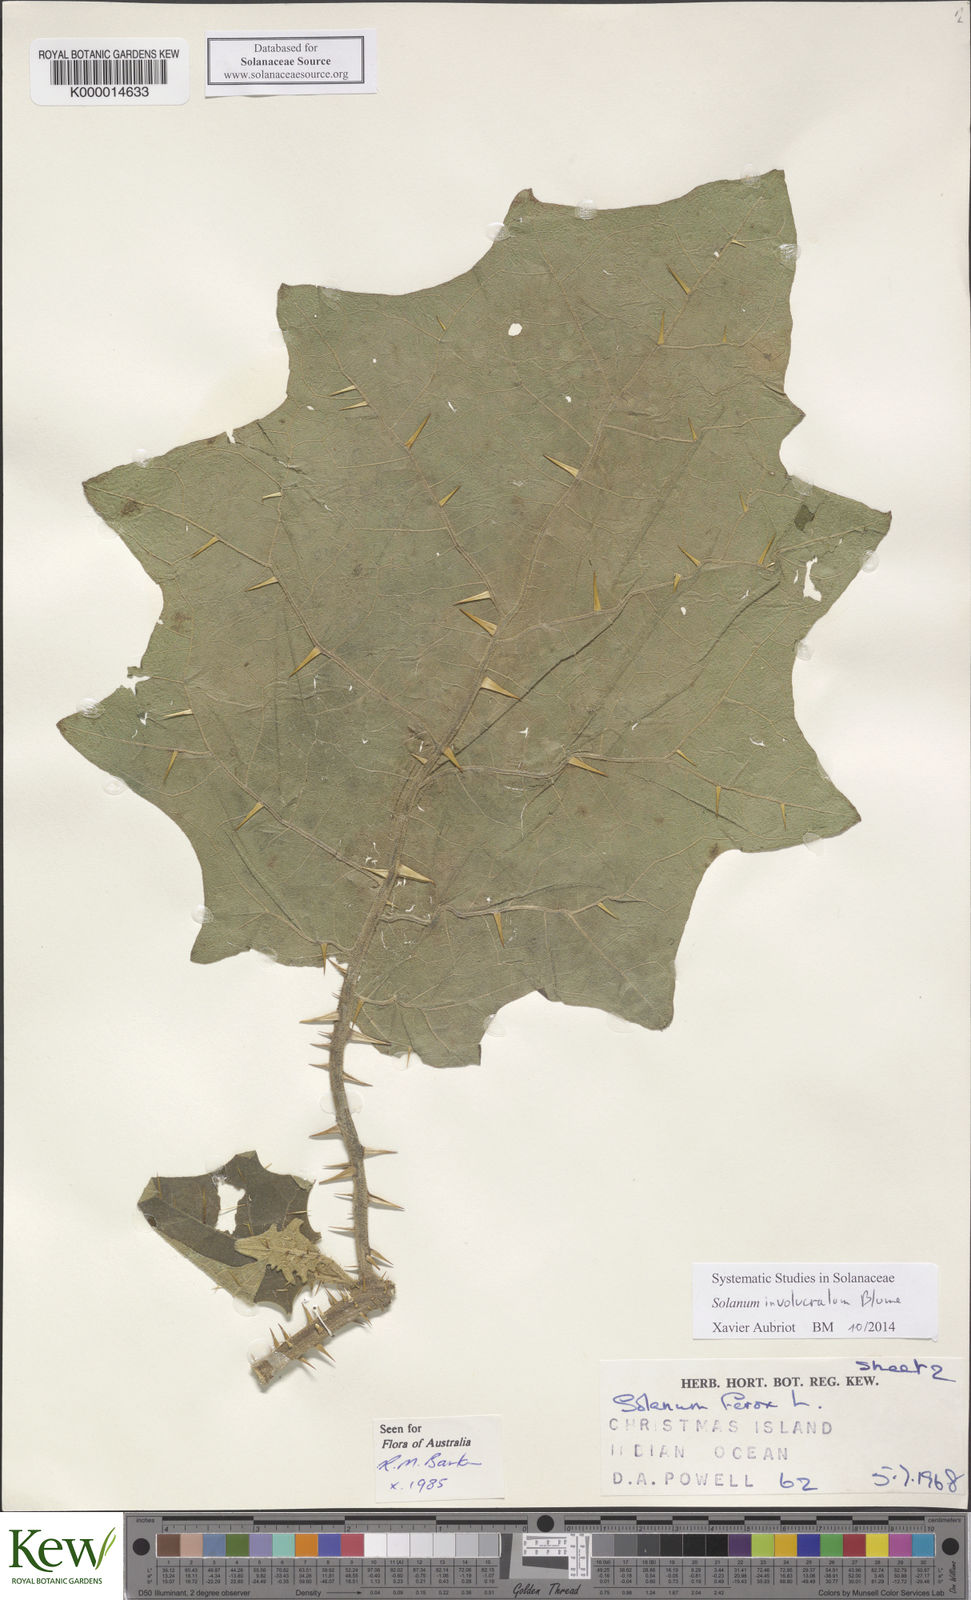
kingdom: Plantae
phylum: Tracheophyta
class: Magnoliopsida
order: Solanales
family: Solanaceae
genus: Solanum
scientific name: Solanum involucratum
